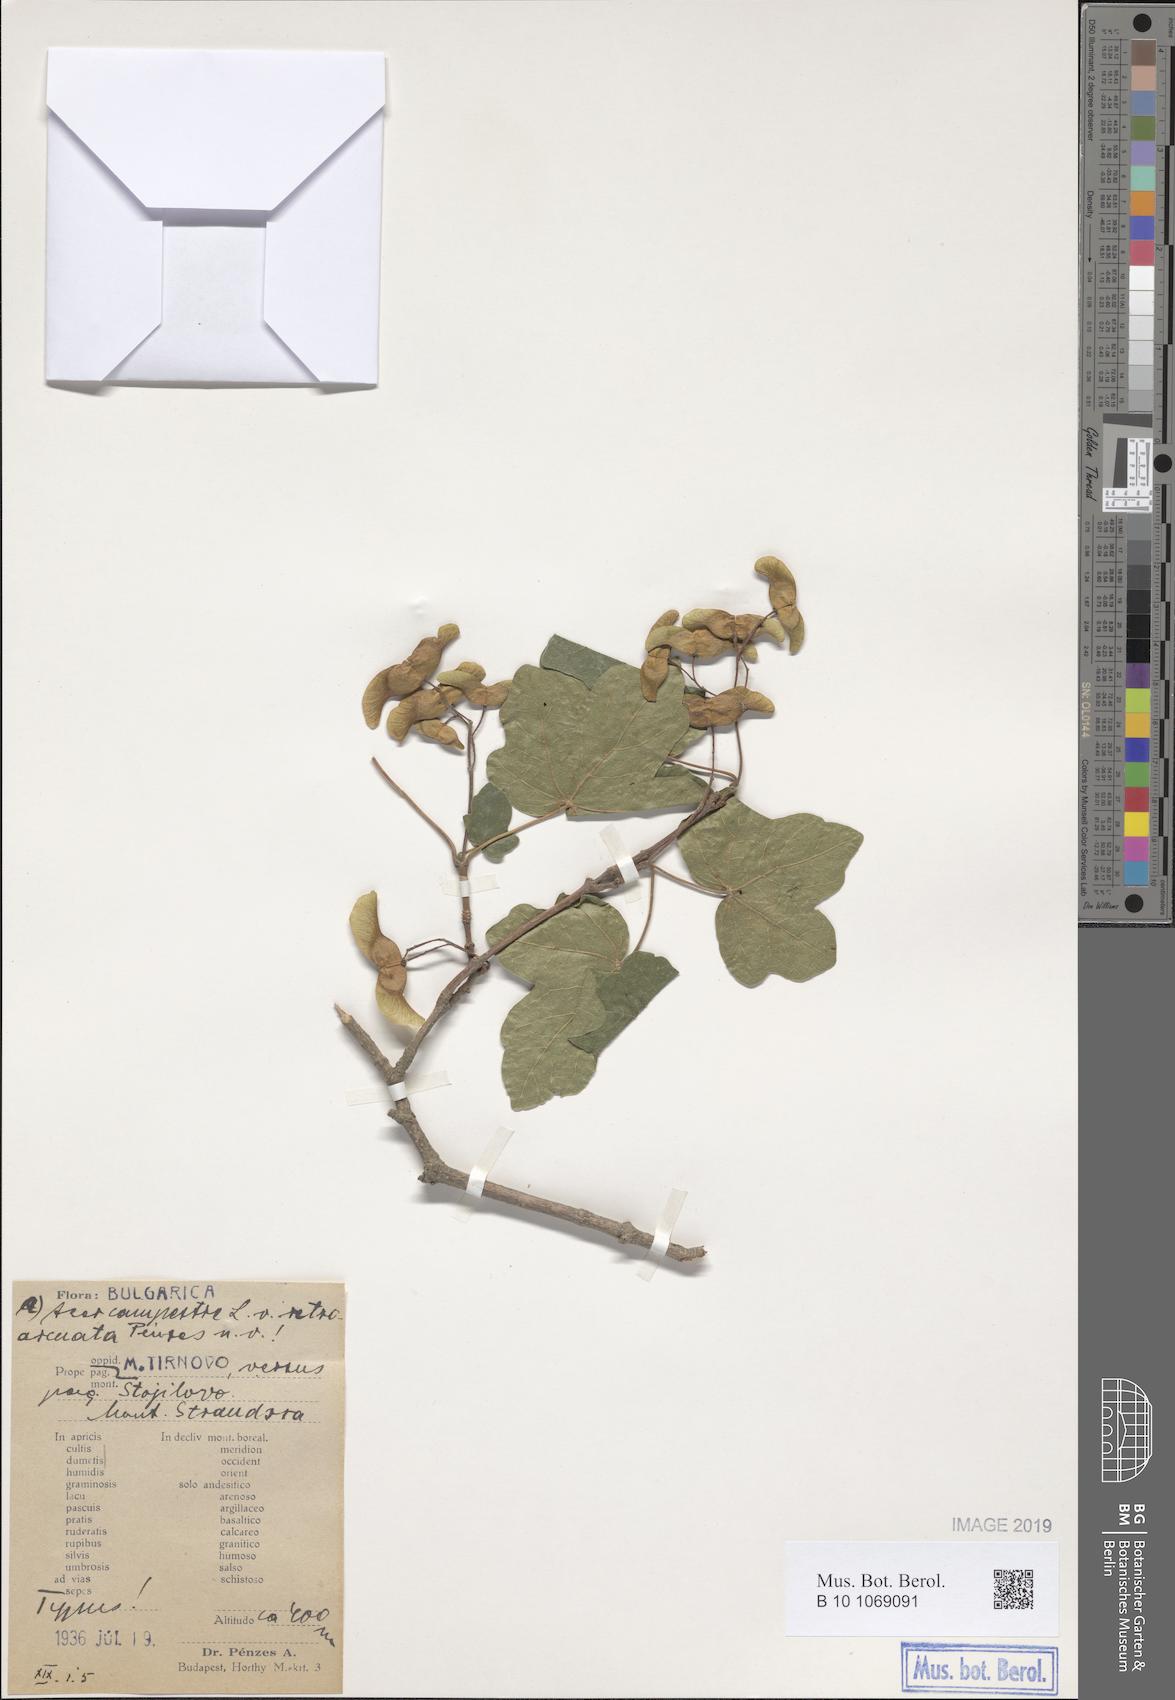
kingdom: Plantae
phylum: Tracheophyta
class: Magnoliopsida
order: Sapindales
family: Sapindaceae
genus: Acer
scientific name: Acer campestre
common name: Field maple
